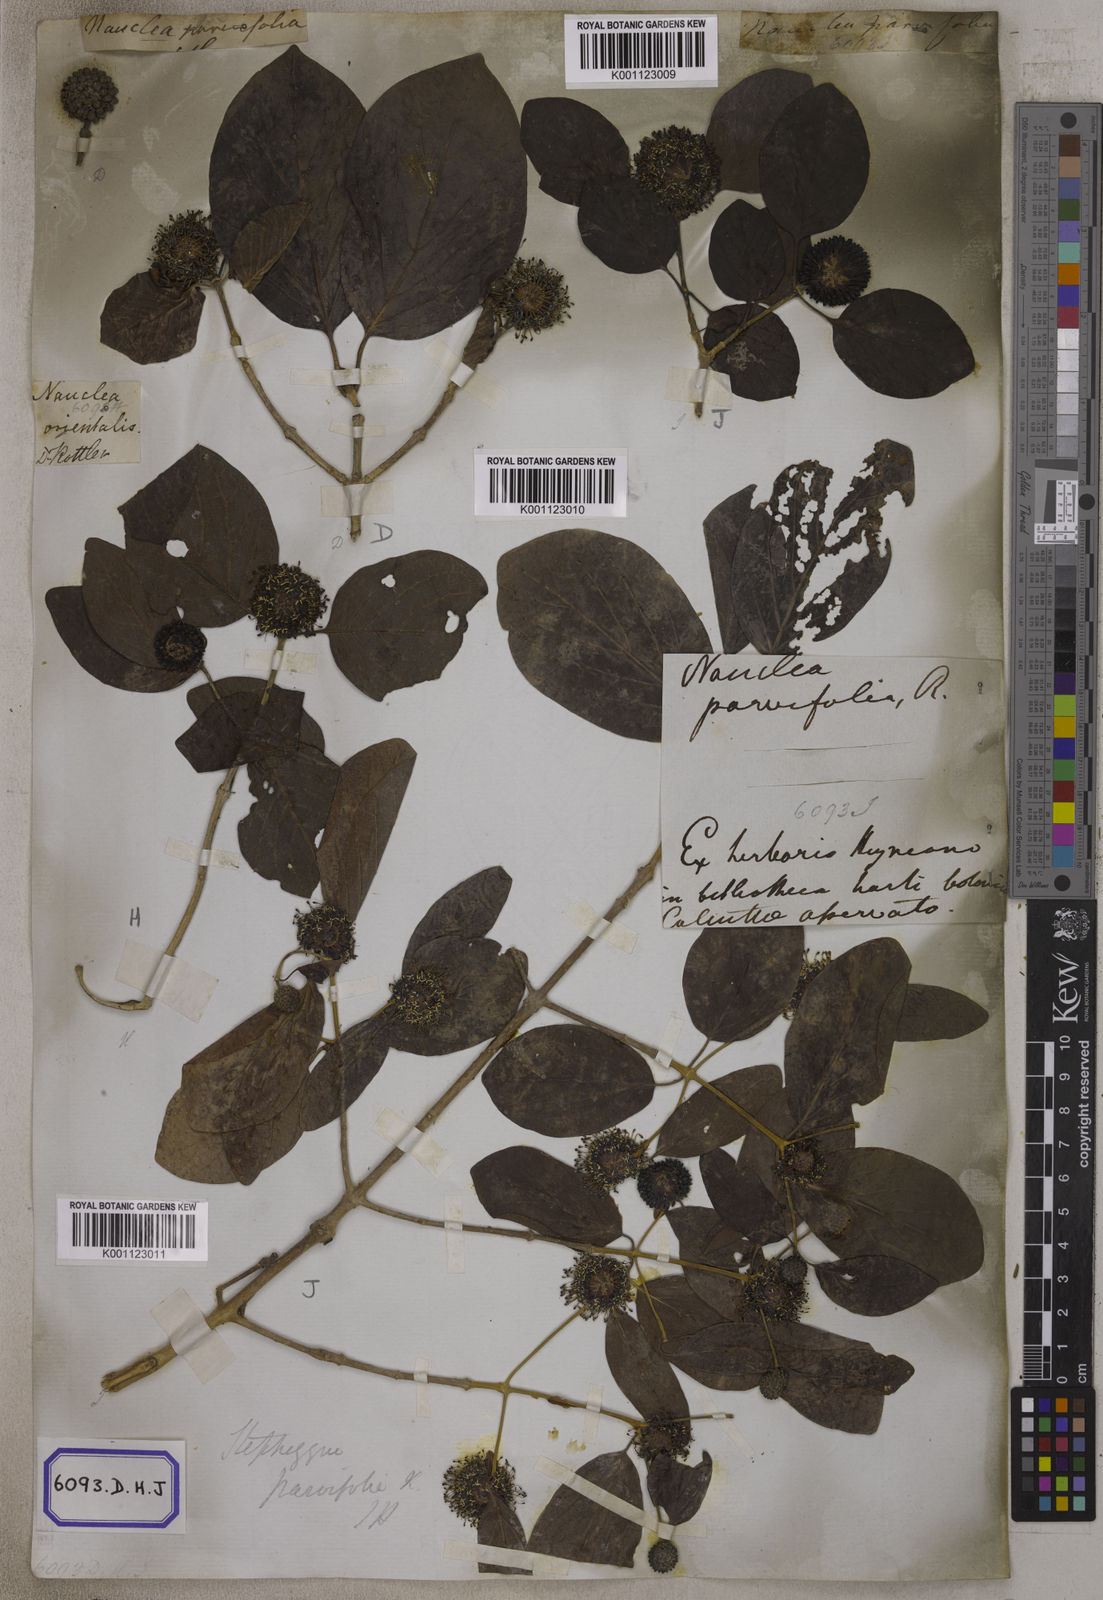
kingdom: Plantae
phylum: Tracheophyta
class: Magnoliopsida
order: Gentianales
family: Rubiaceae
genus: Nauclea
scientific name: Nauclea
